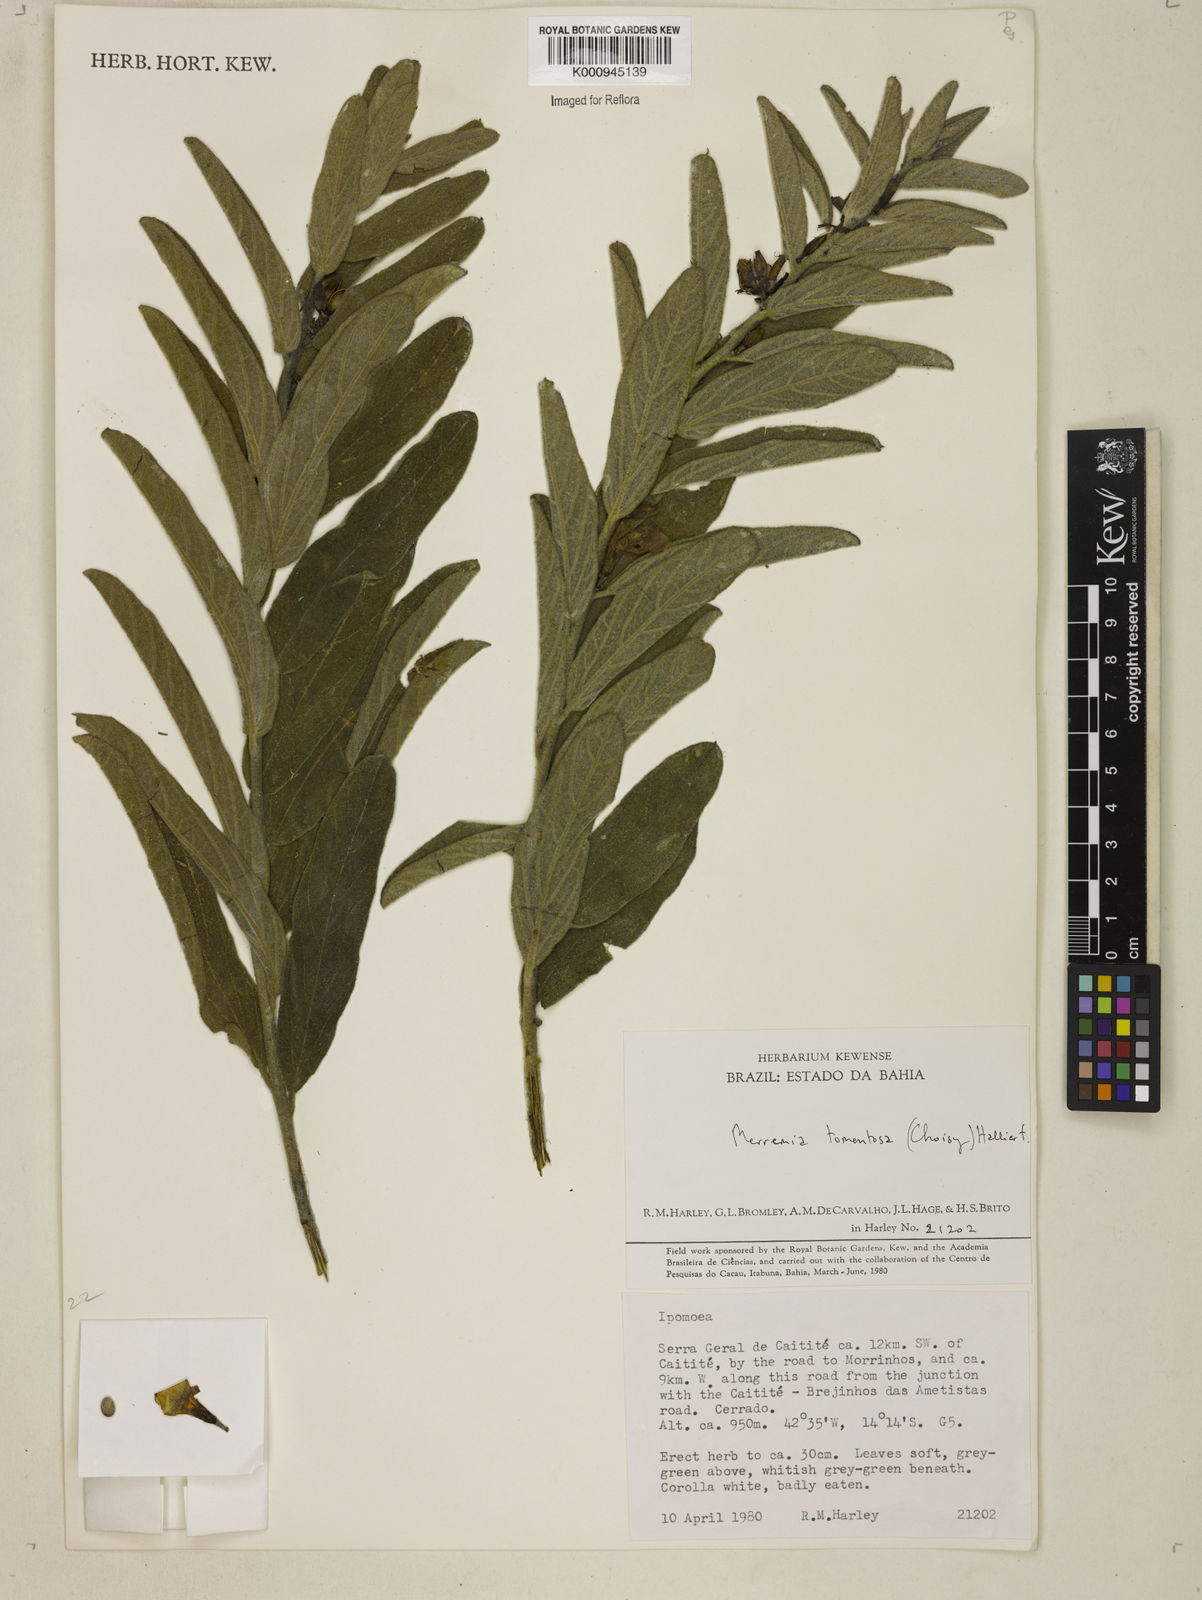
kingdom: Plantae
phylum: Tracheophyta
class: Magnoliopsida
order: Solanales
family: Convolvulaceae
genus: Distimake
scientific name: Distimake tomentosus
